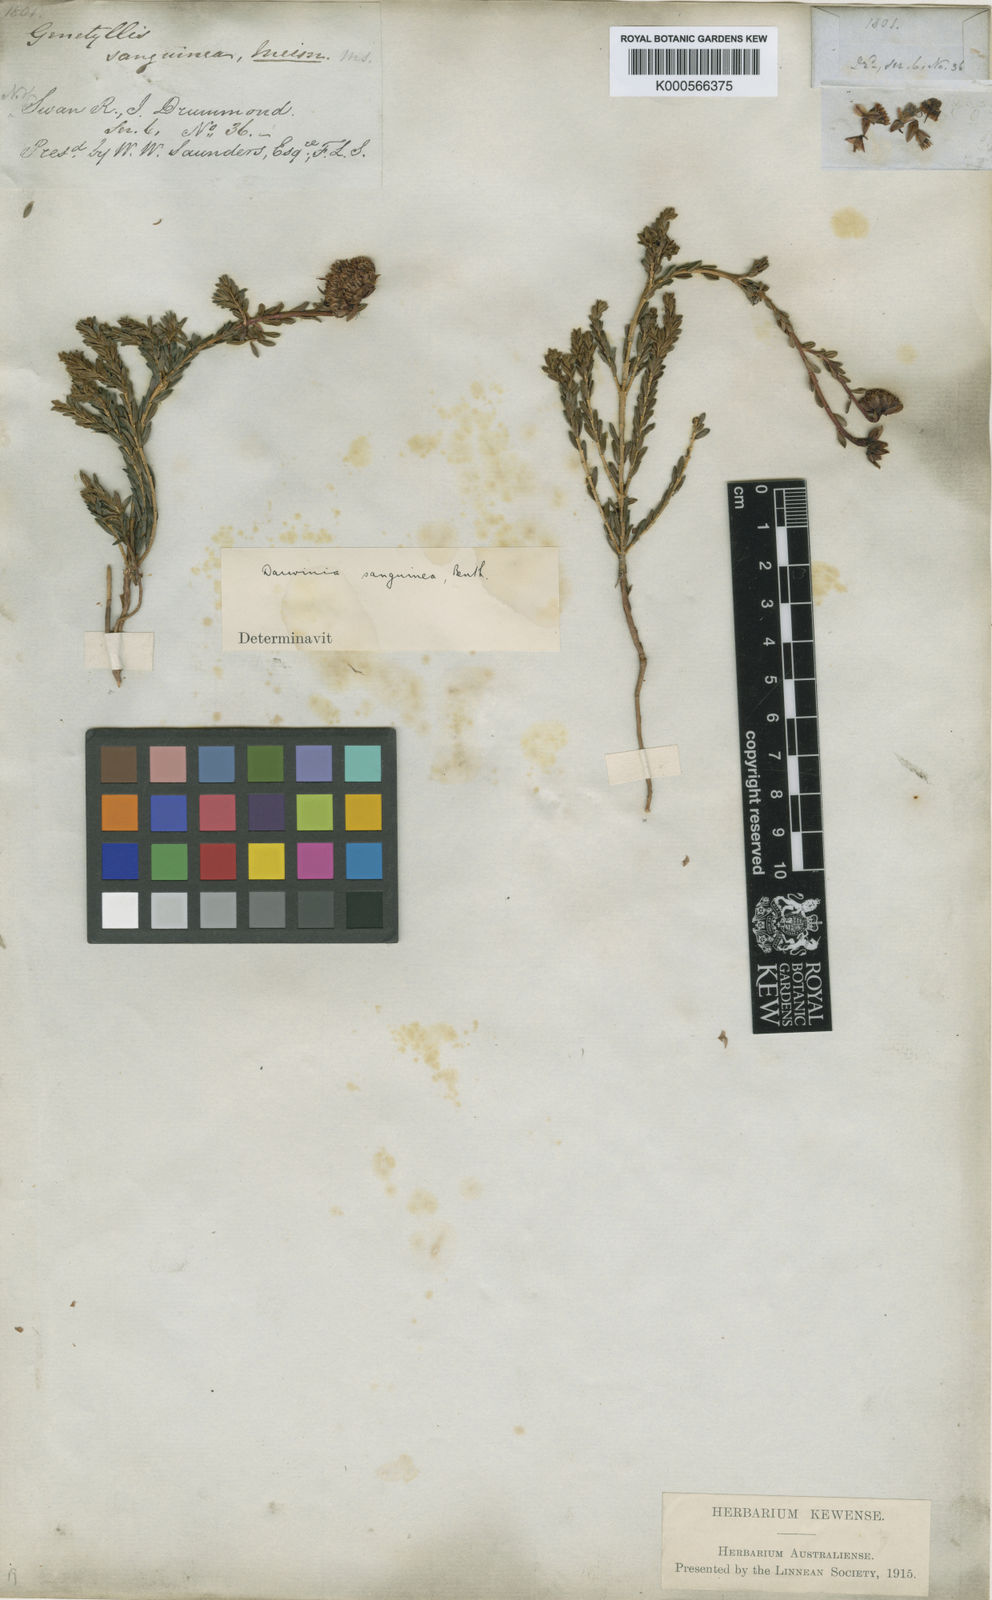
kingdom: Plantae
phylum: Tracheophyta
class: Magnoliopsida
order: Myrtales
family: Myrtaceae
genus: Darwinia
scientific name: Darwinia sanguinea
